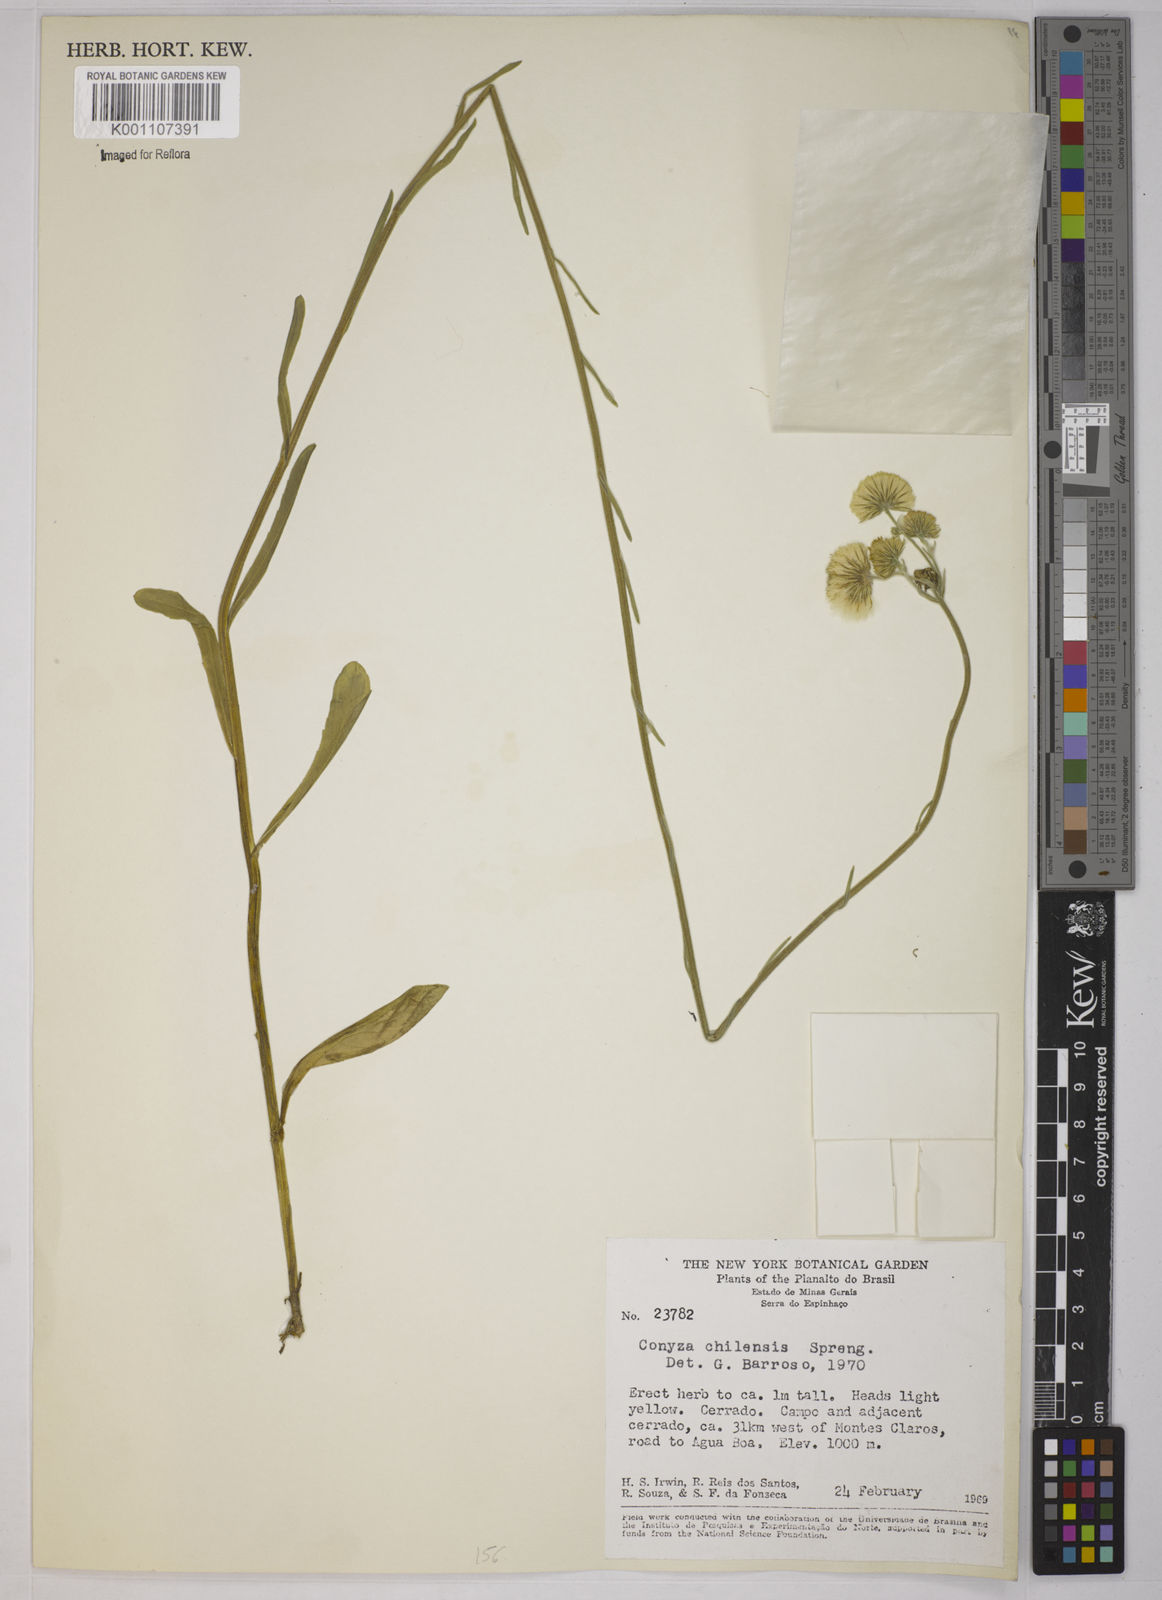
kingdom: Plantae
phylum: Tracheophyta
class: Magnoliopsida
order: Asterales
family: Asteraceae
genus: Conyza
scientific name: Conyza
